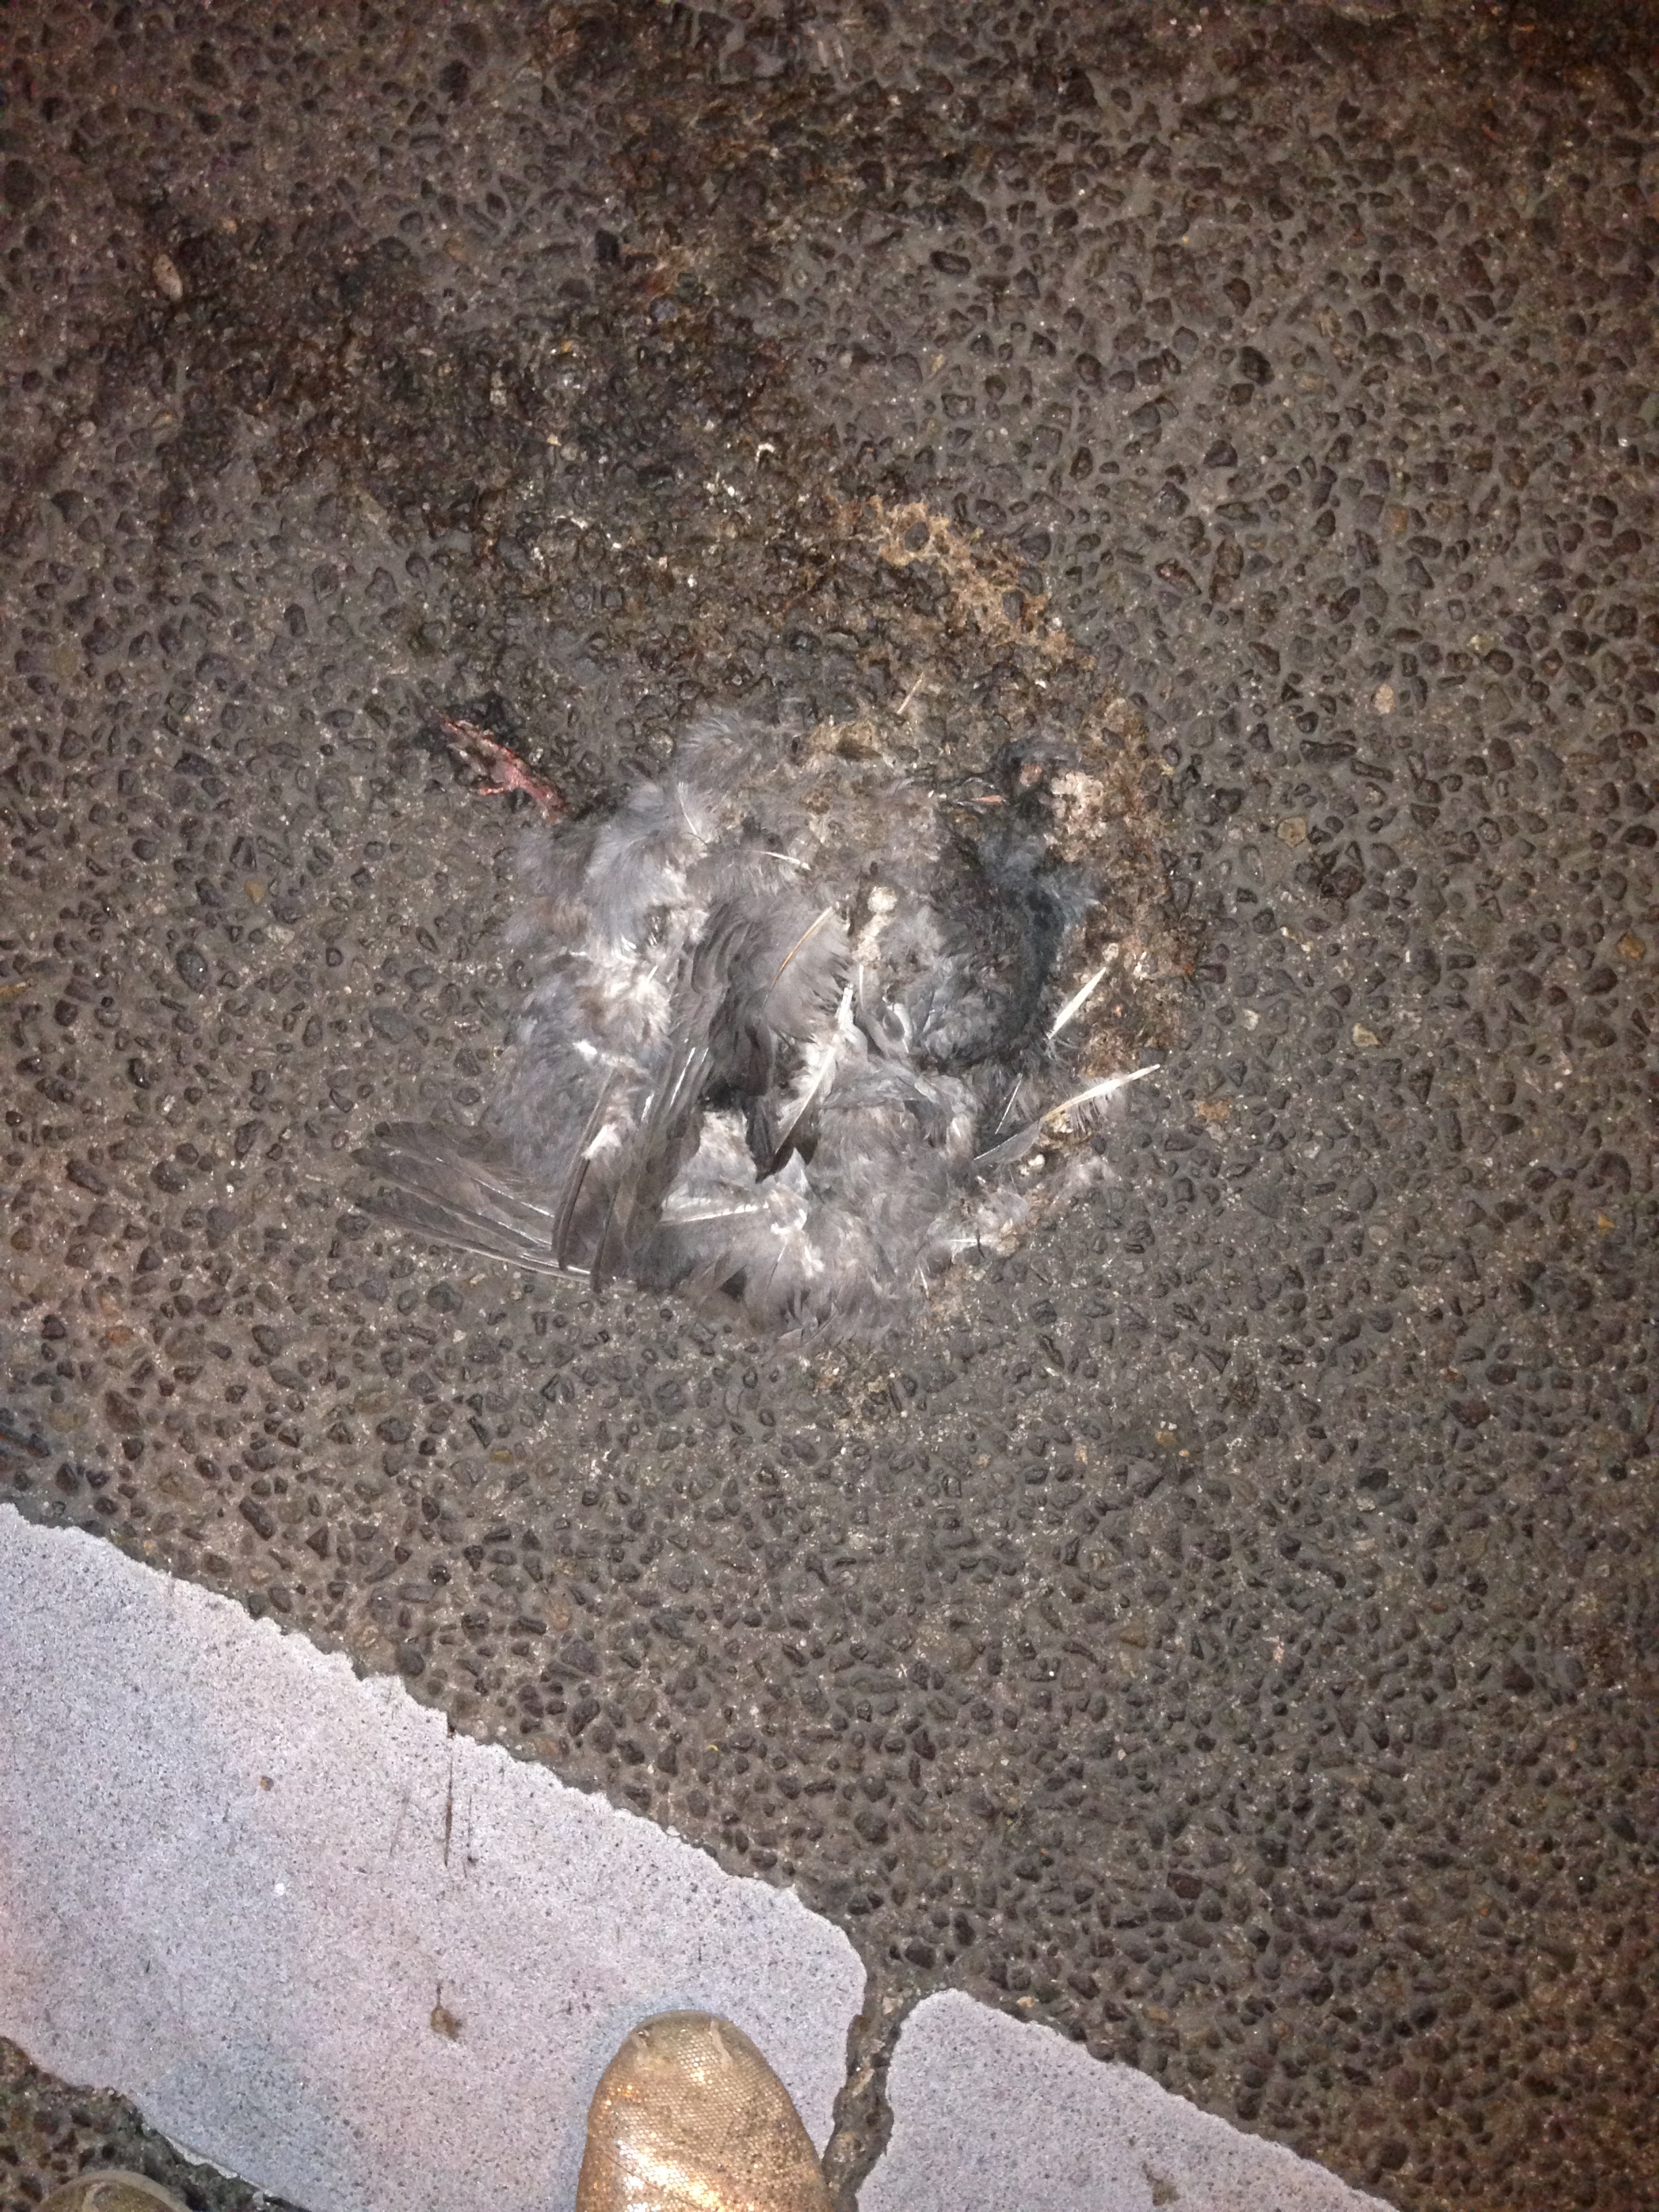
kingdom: Animalia
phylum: Chordata
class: Aves
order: Columbiformes
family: Columbidae
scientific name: Columbidae
